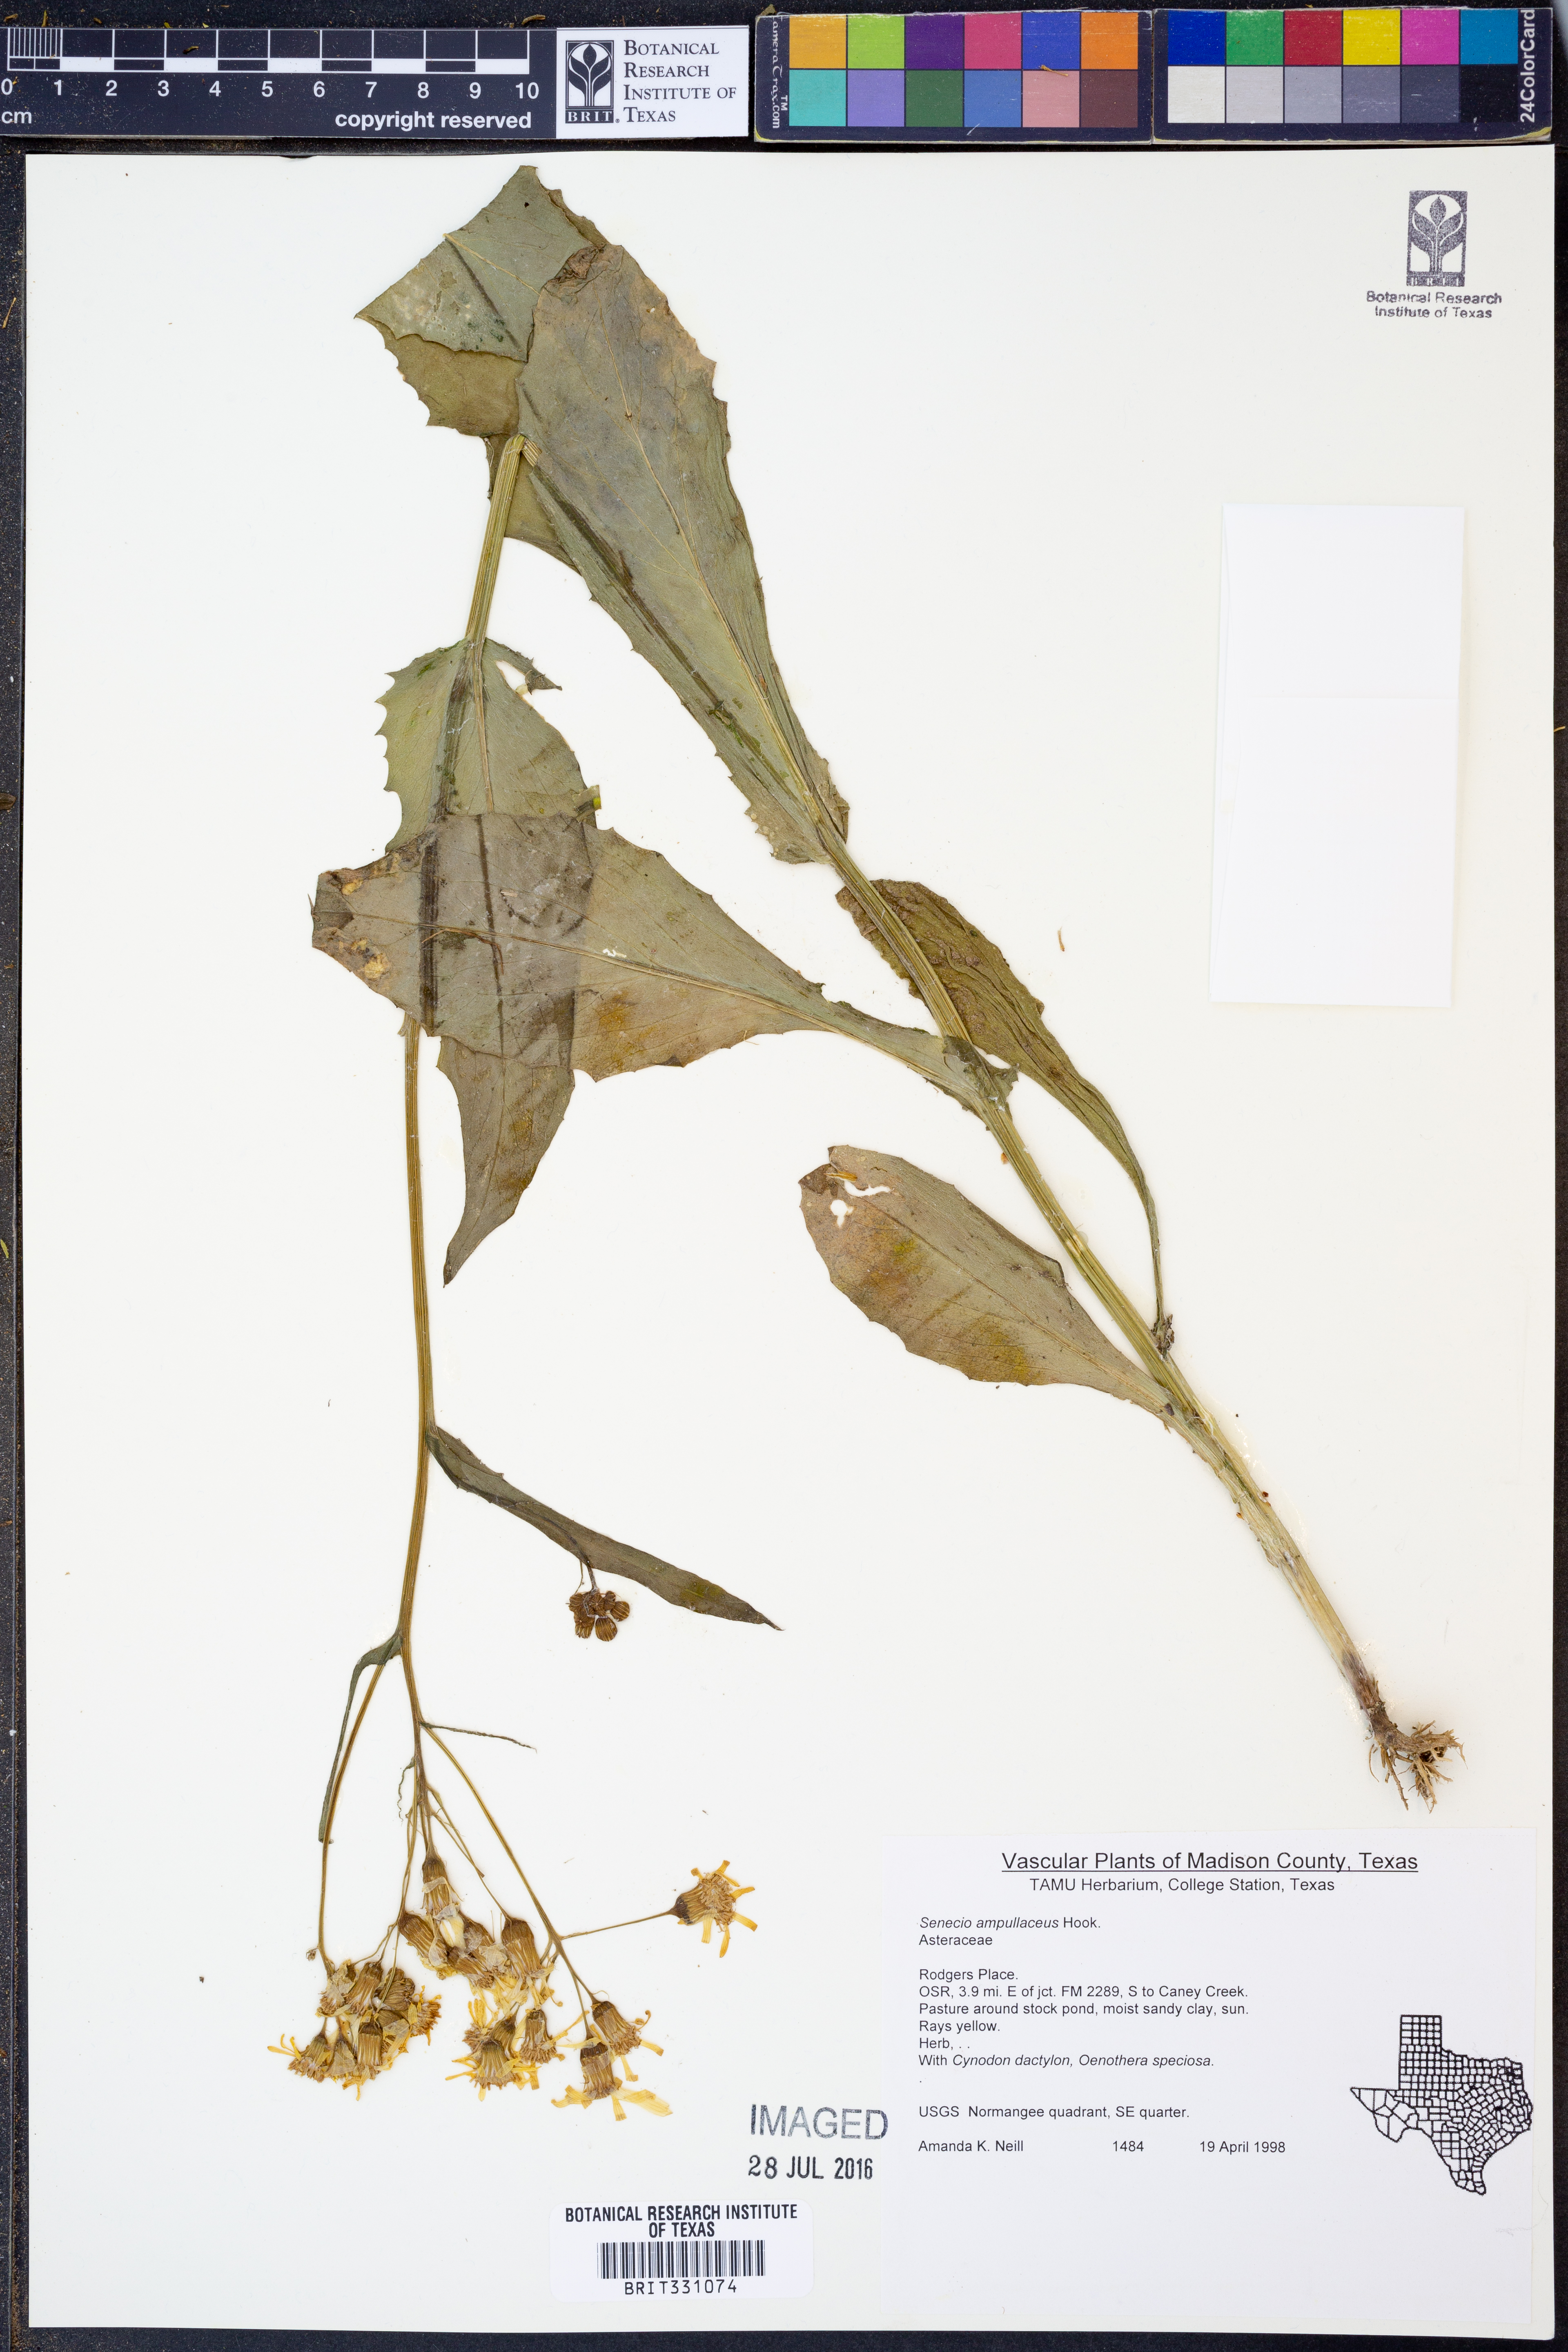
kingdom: Plantae
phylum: Tracheophyta
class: Magnoliopsida
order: Asterales
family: Asteraceae
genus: Senecio
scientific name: Senecio ampullaceus
